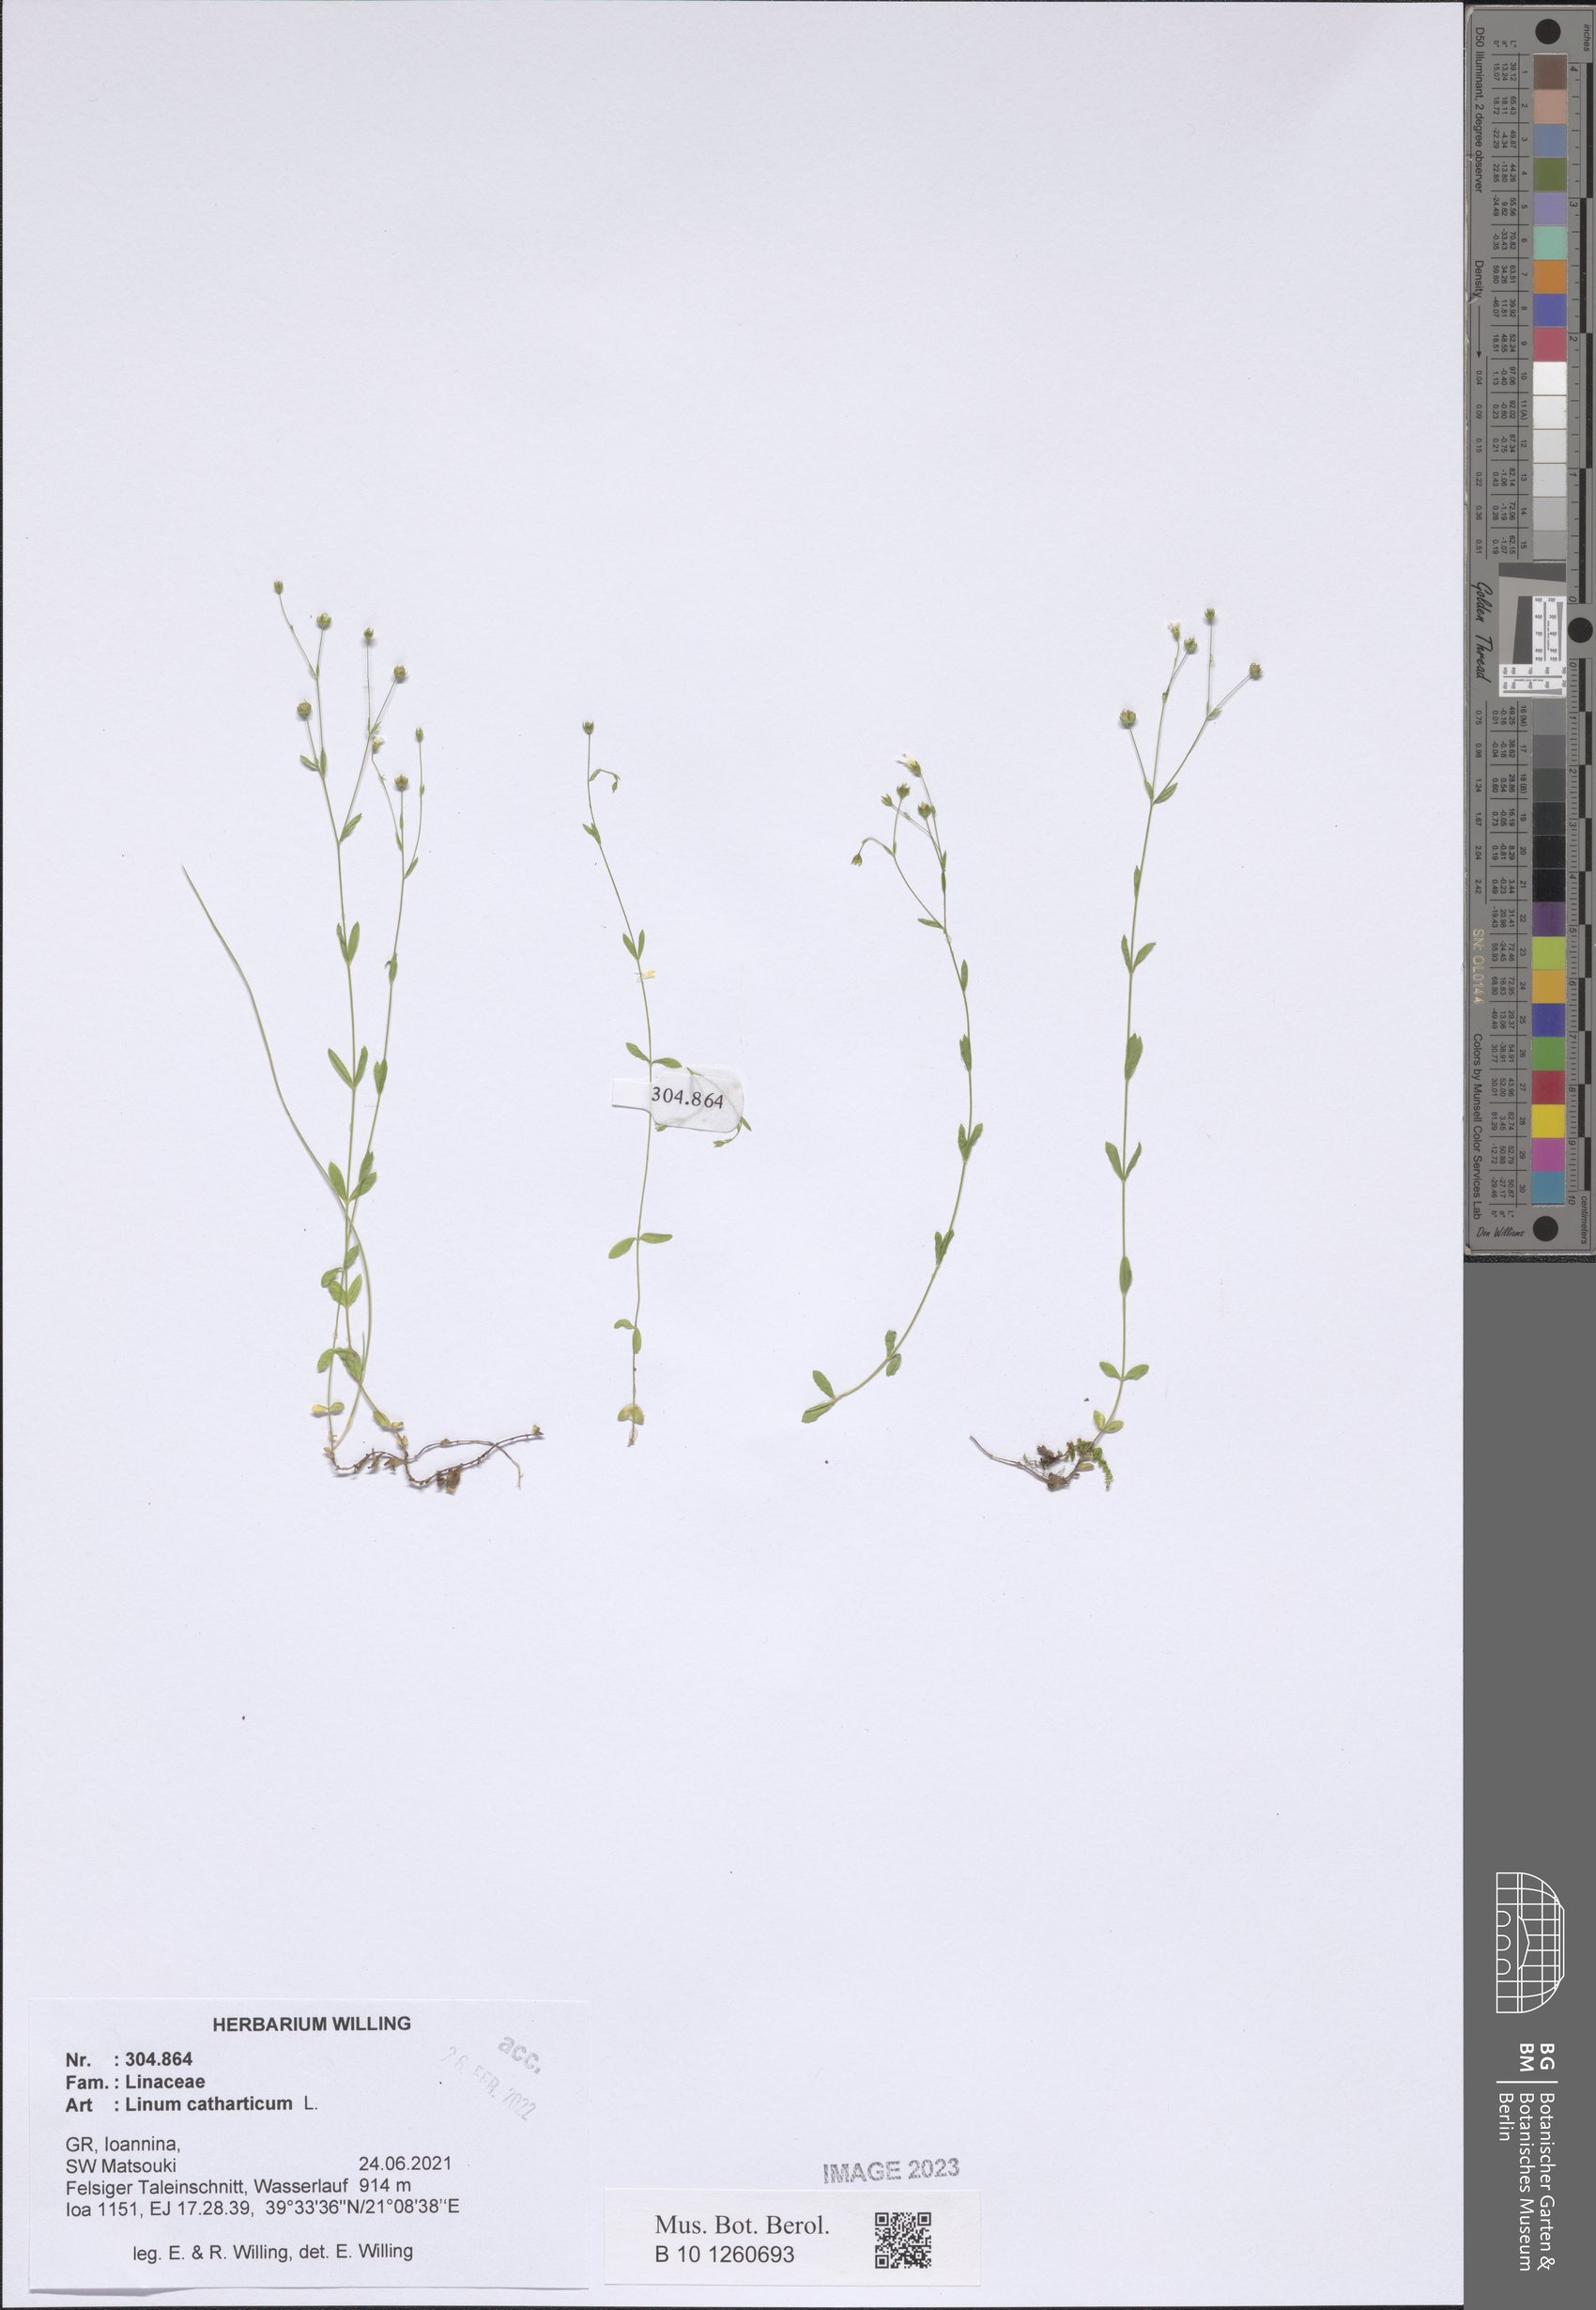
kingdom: Plantae
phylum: Tracheophyta
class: Magnoliopsida
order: Malpighiales
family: Linaceae
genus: Linum
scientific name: Linum catharticum
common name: Fairy flax
